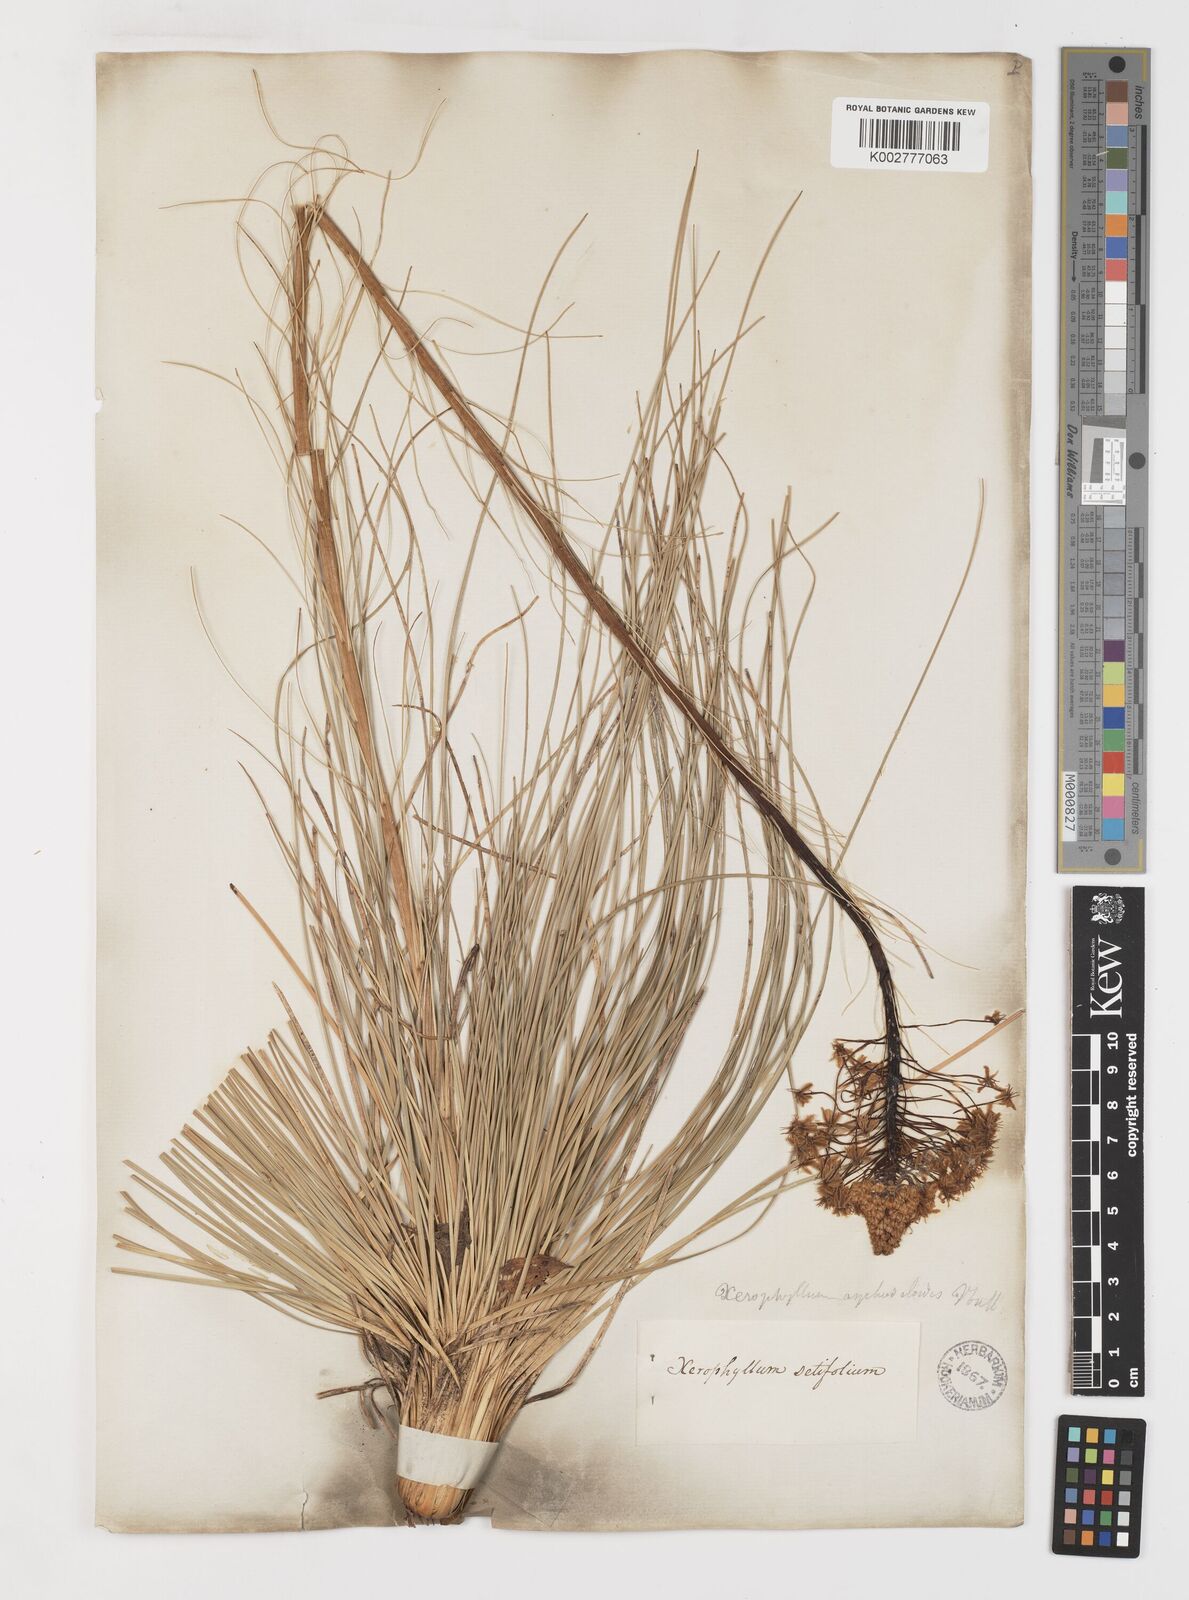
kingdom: Plantae
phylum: Tracheophyta
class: Liliopsida
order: Liliales
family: Melanthiaceae
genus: Xerophyllum
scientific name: Xerophyllum asphodeloides
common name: Mountain-asphodel
